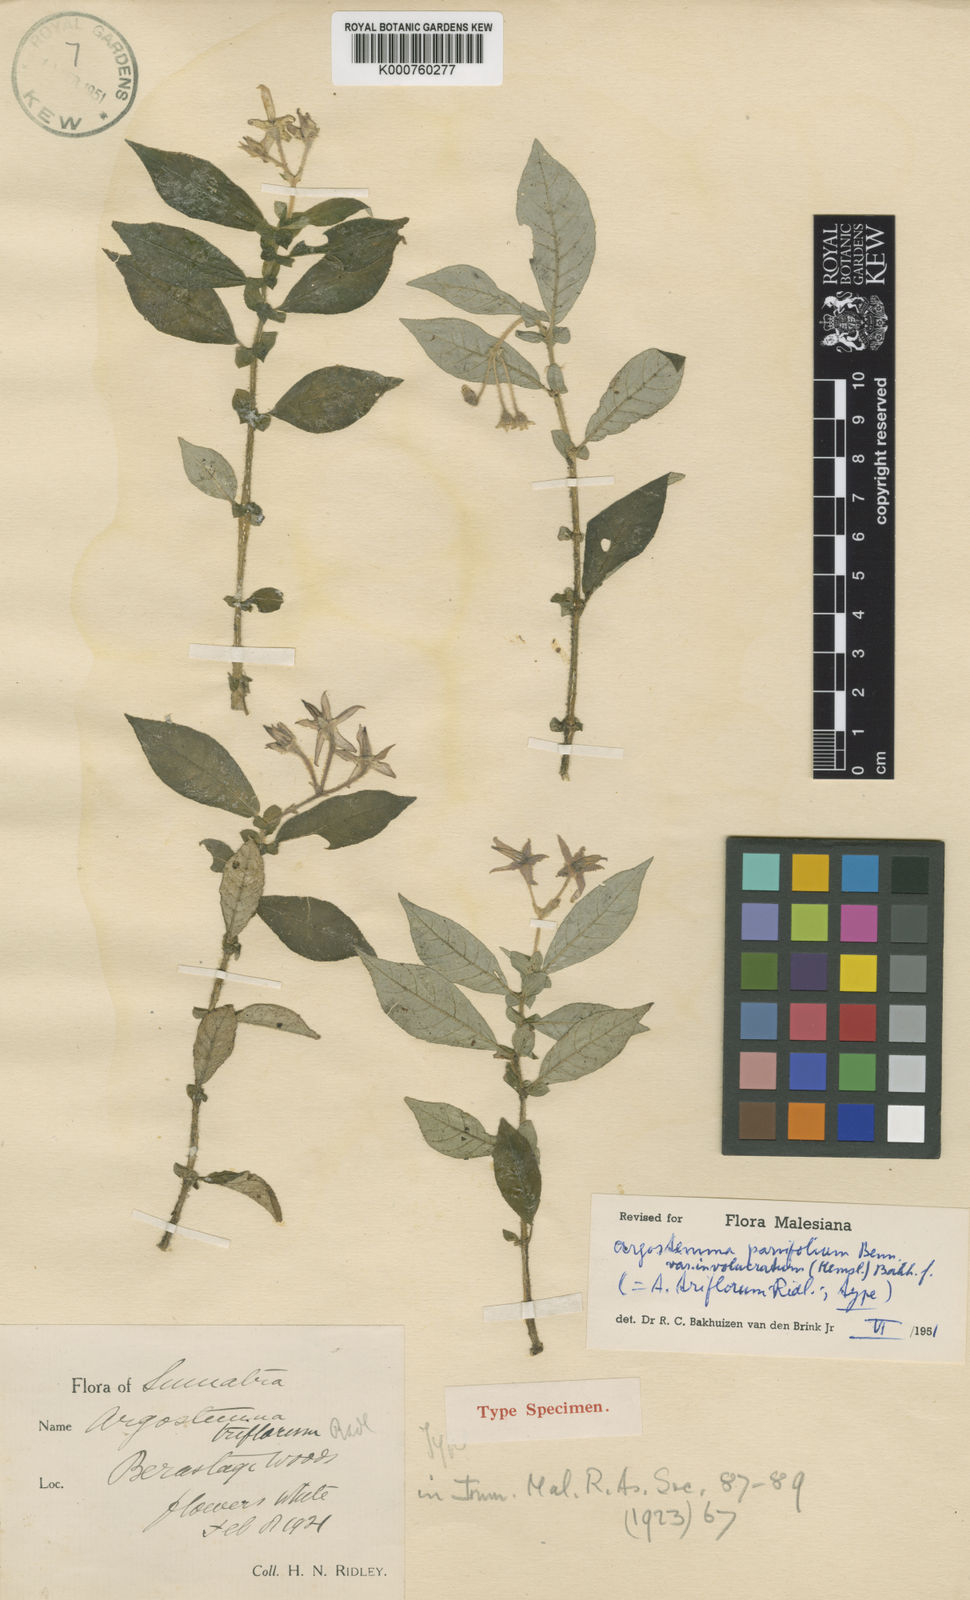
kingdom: Plantae
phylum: Tracheophyta
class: Magnoliopsida
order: Gentianales
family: Rubiaceae
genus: Argostemma
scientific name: Argostemma parvifolium
